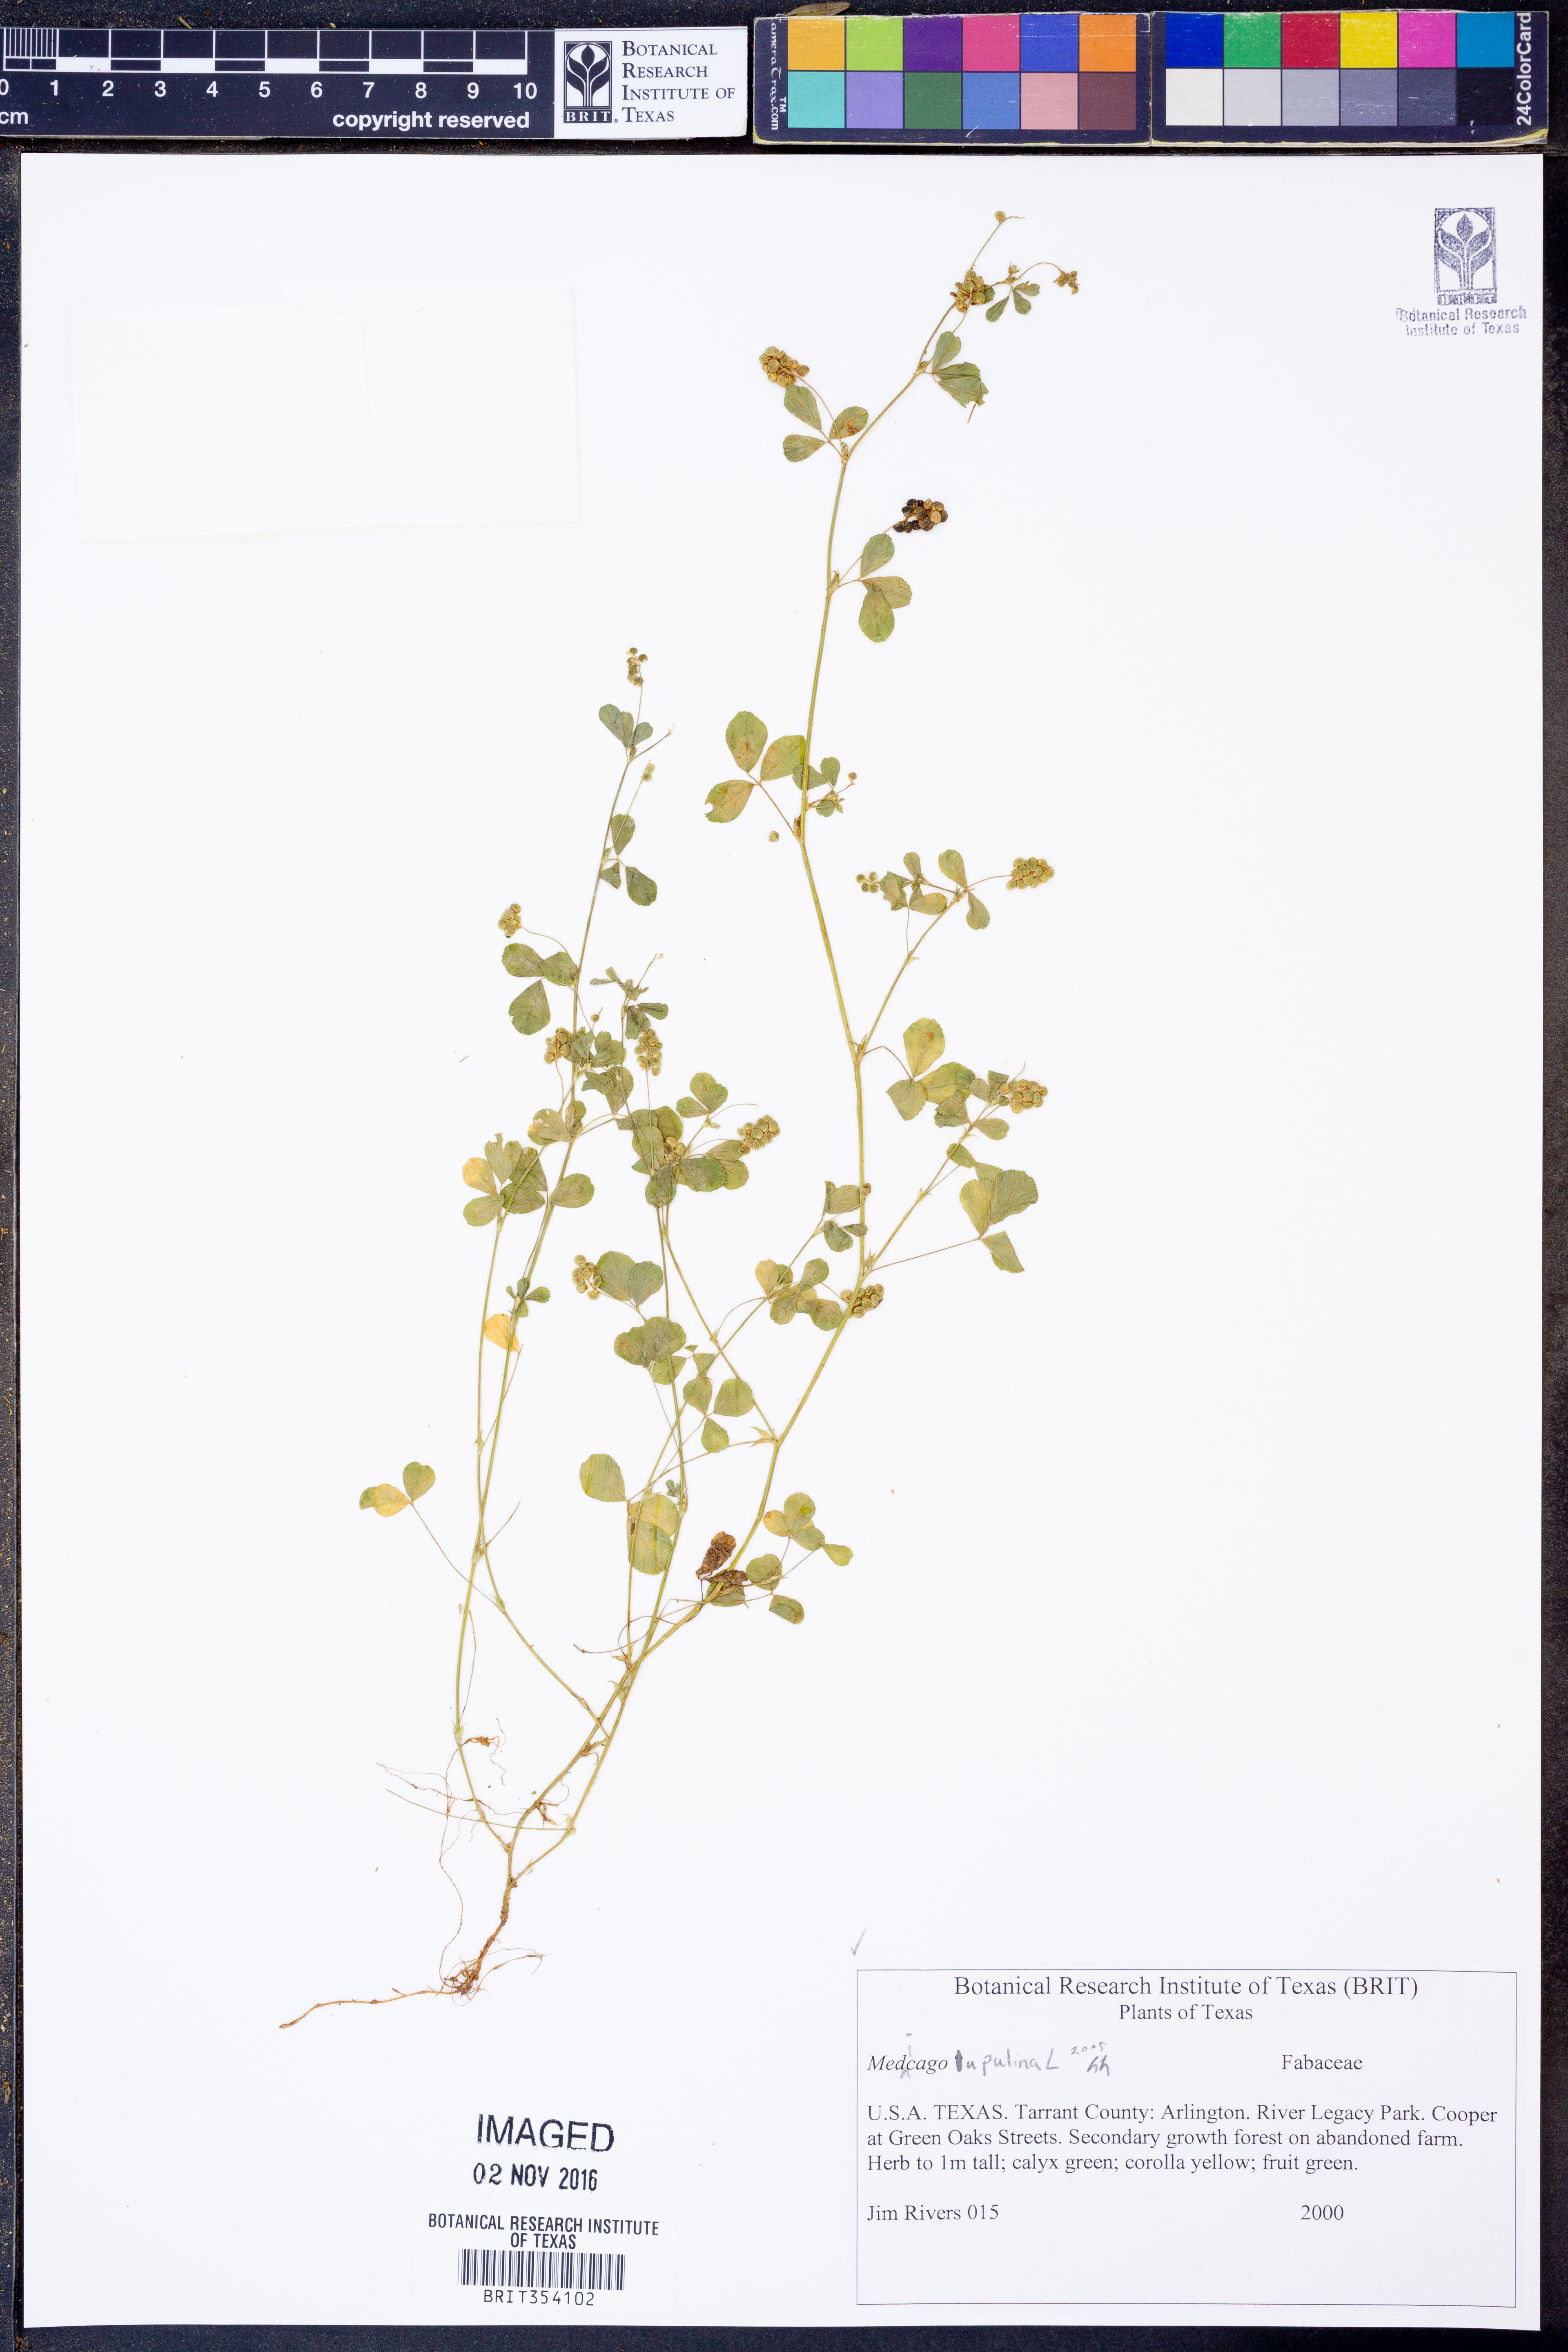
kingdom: Plantae
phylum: Tracheophyta
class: Magnoliopsida
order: Fabales
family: Fabaceae
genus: Medicago
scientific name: Medicago lupulina
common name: Black medick
